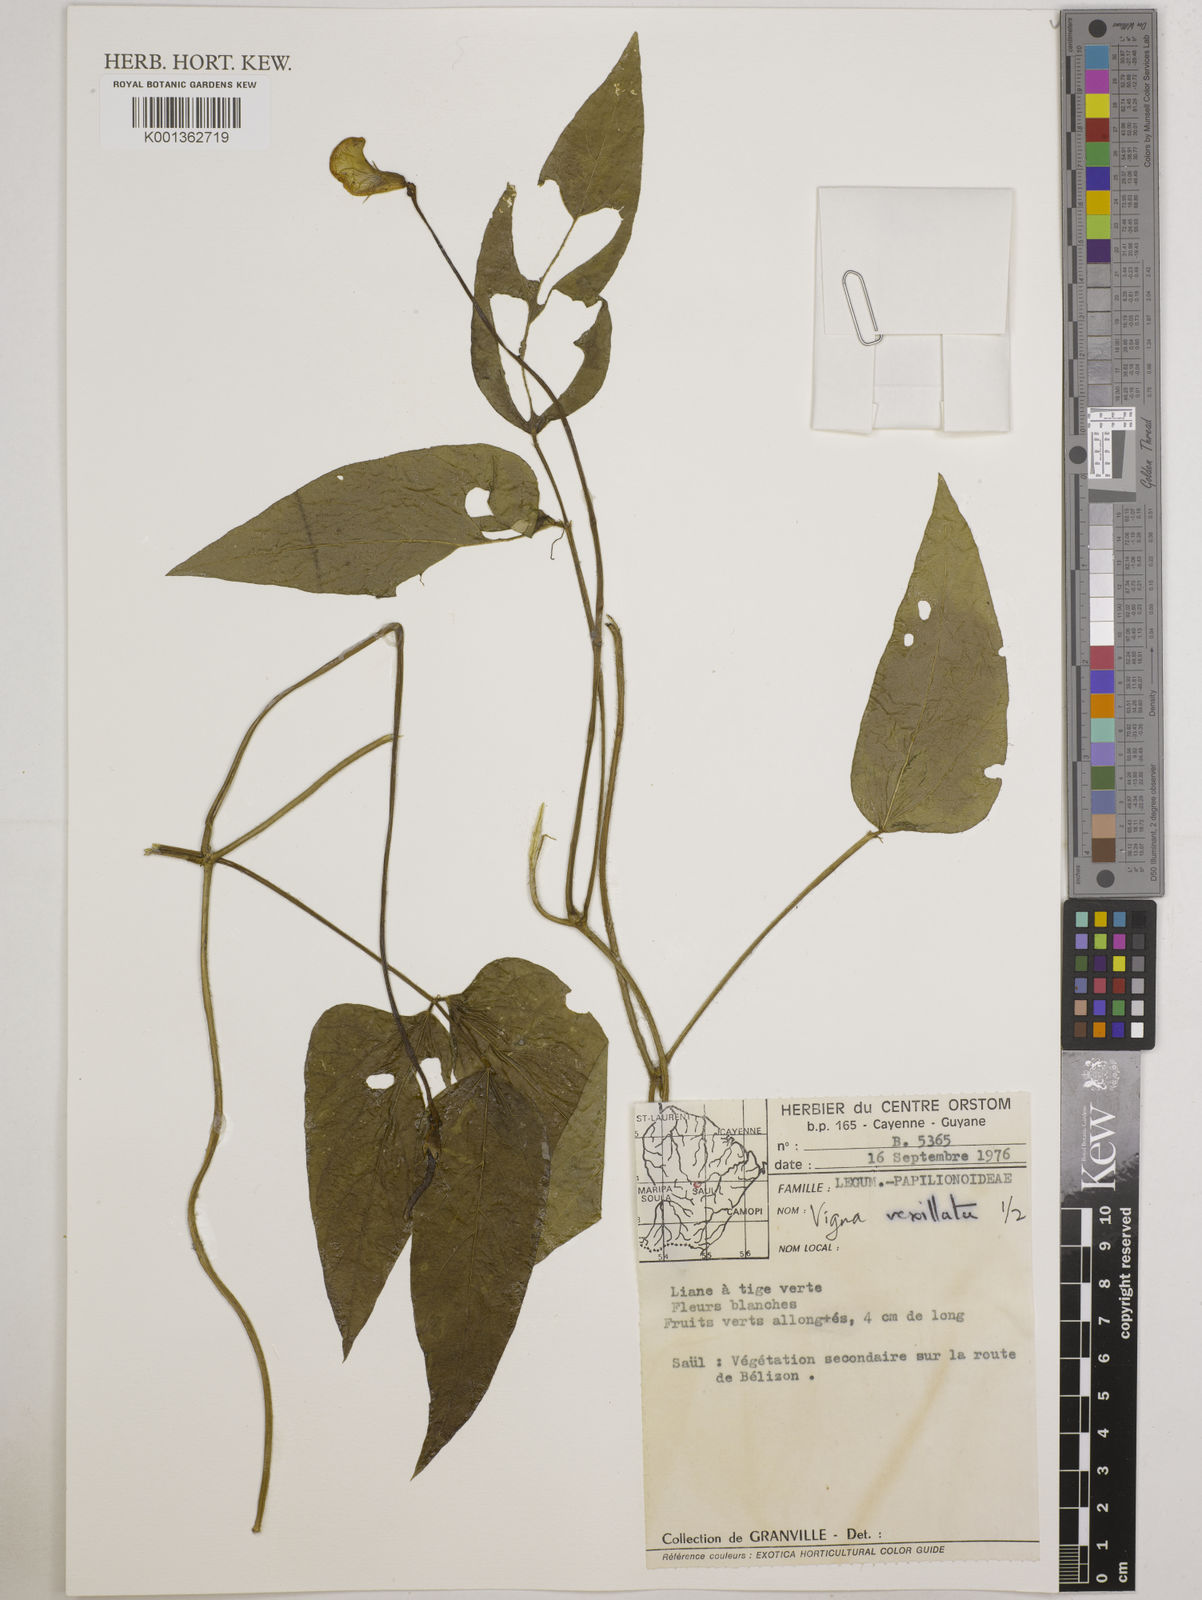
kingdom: Plantae
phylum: Tracheophyta
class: Magnoliopsida
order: Fabales
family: Fabaceae
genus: Vigna
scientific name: Vigna vexillata
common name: Zombi pea
